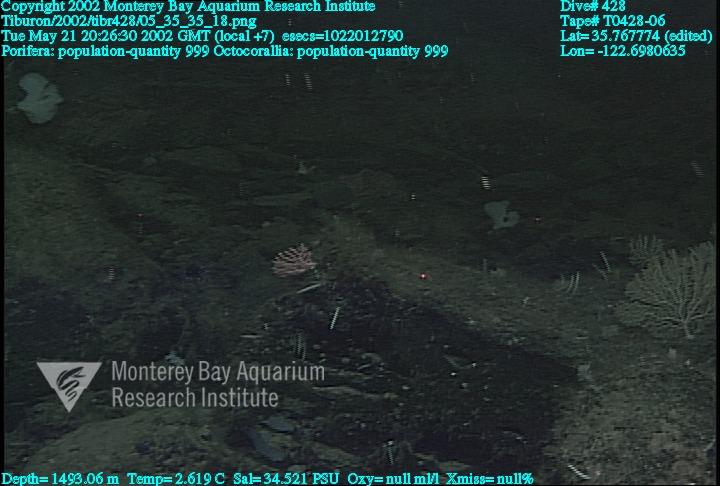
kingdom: Animalia
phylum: Porifera
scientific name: Porifera
